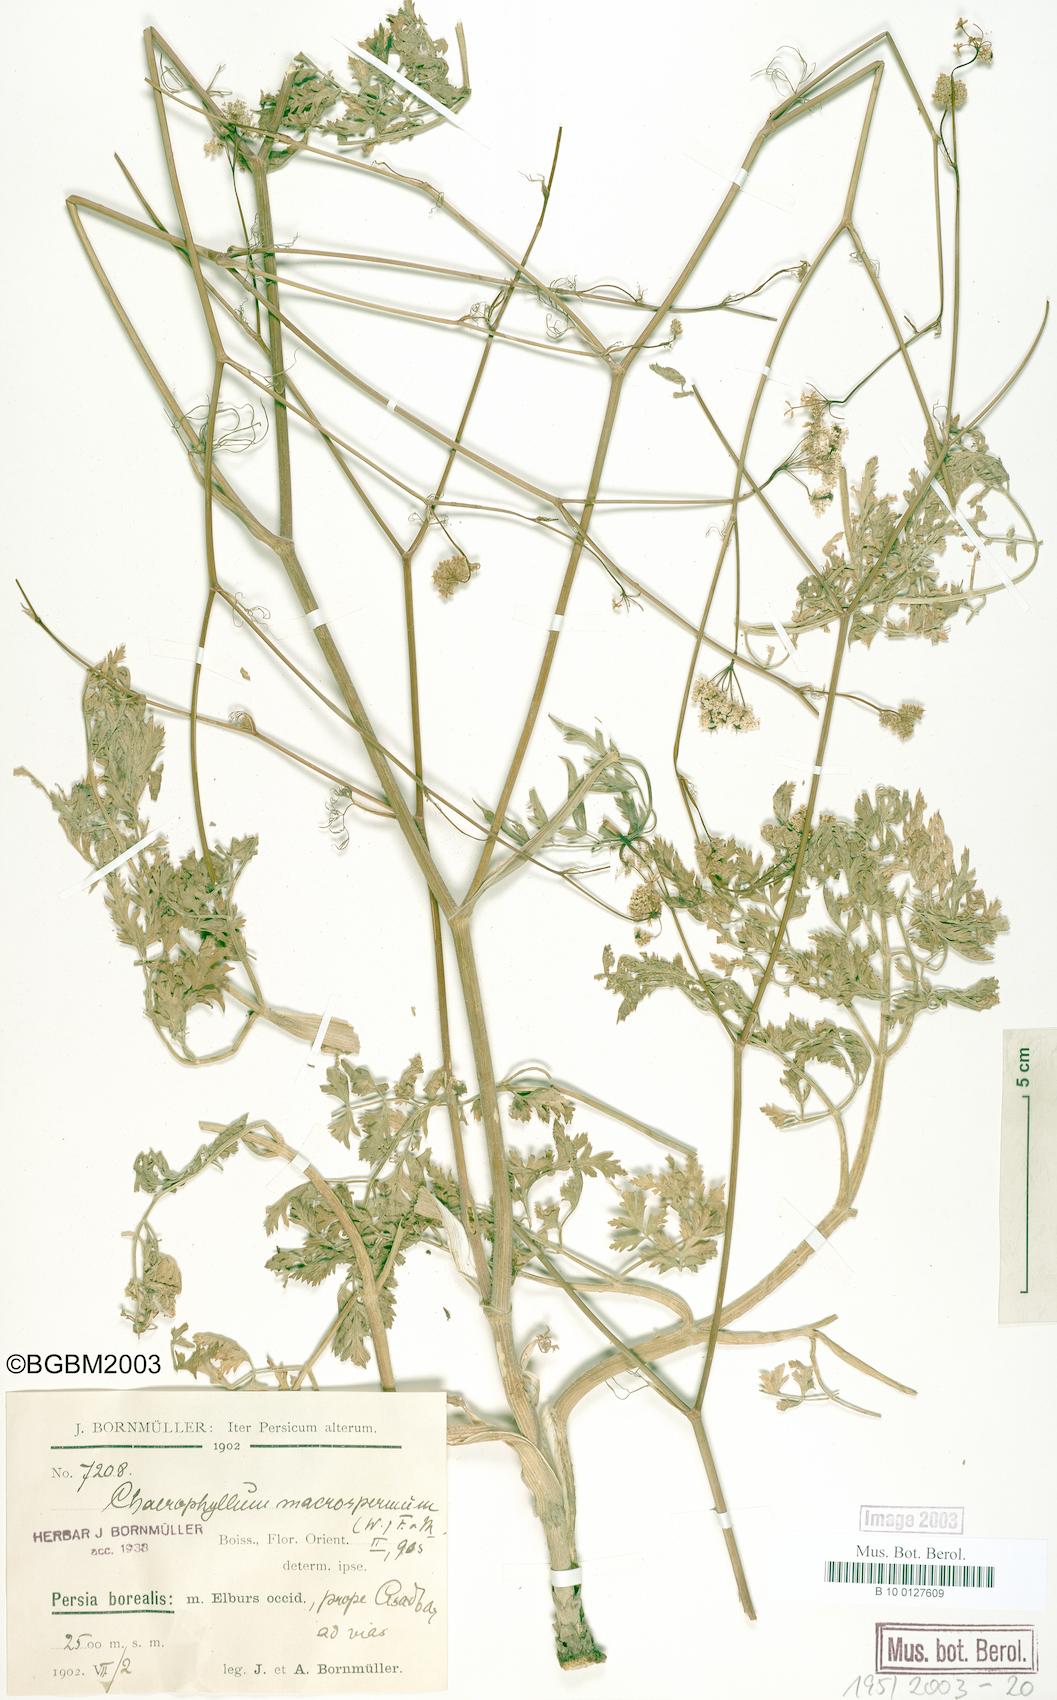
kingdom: Plantae
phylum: Tracheophyta
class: Magnoliopsida
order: Apiales
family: Apiaceae
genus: Chaerophyllum
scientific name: Chaerophyllum macrospermum
